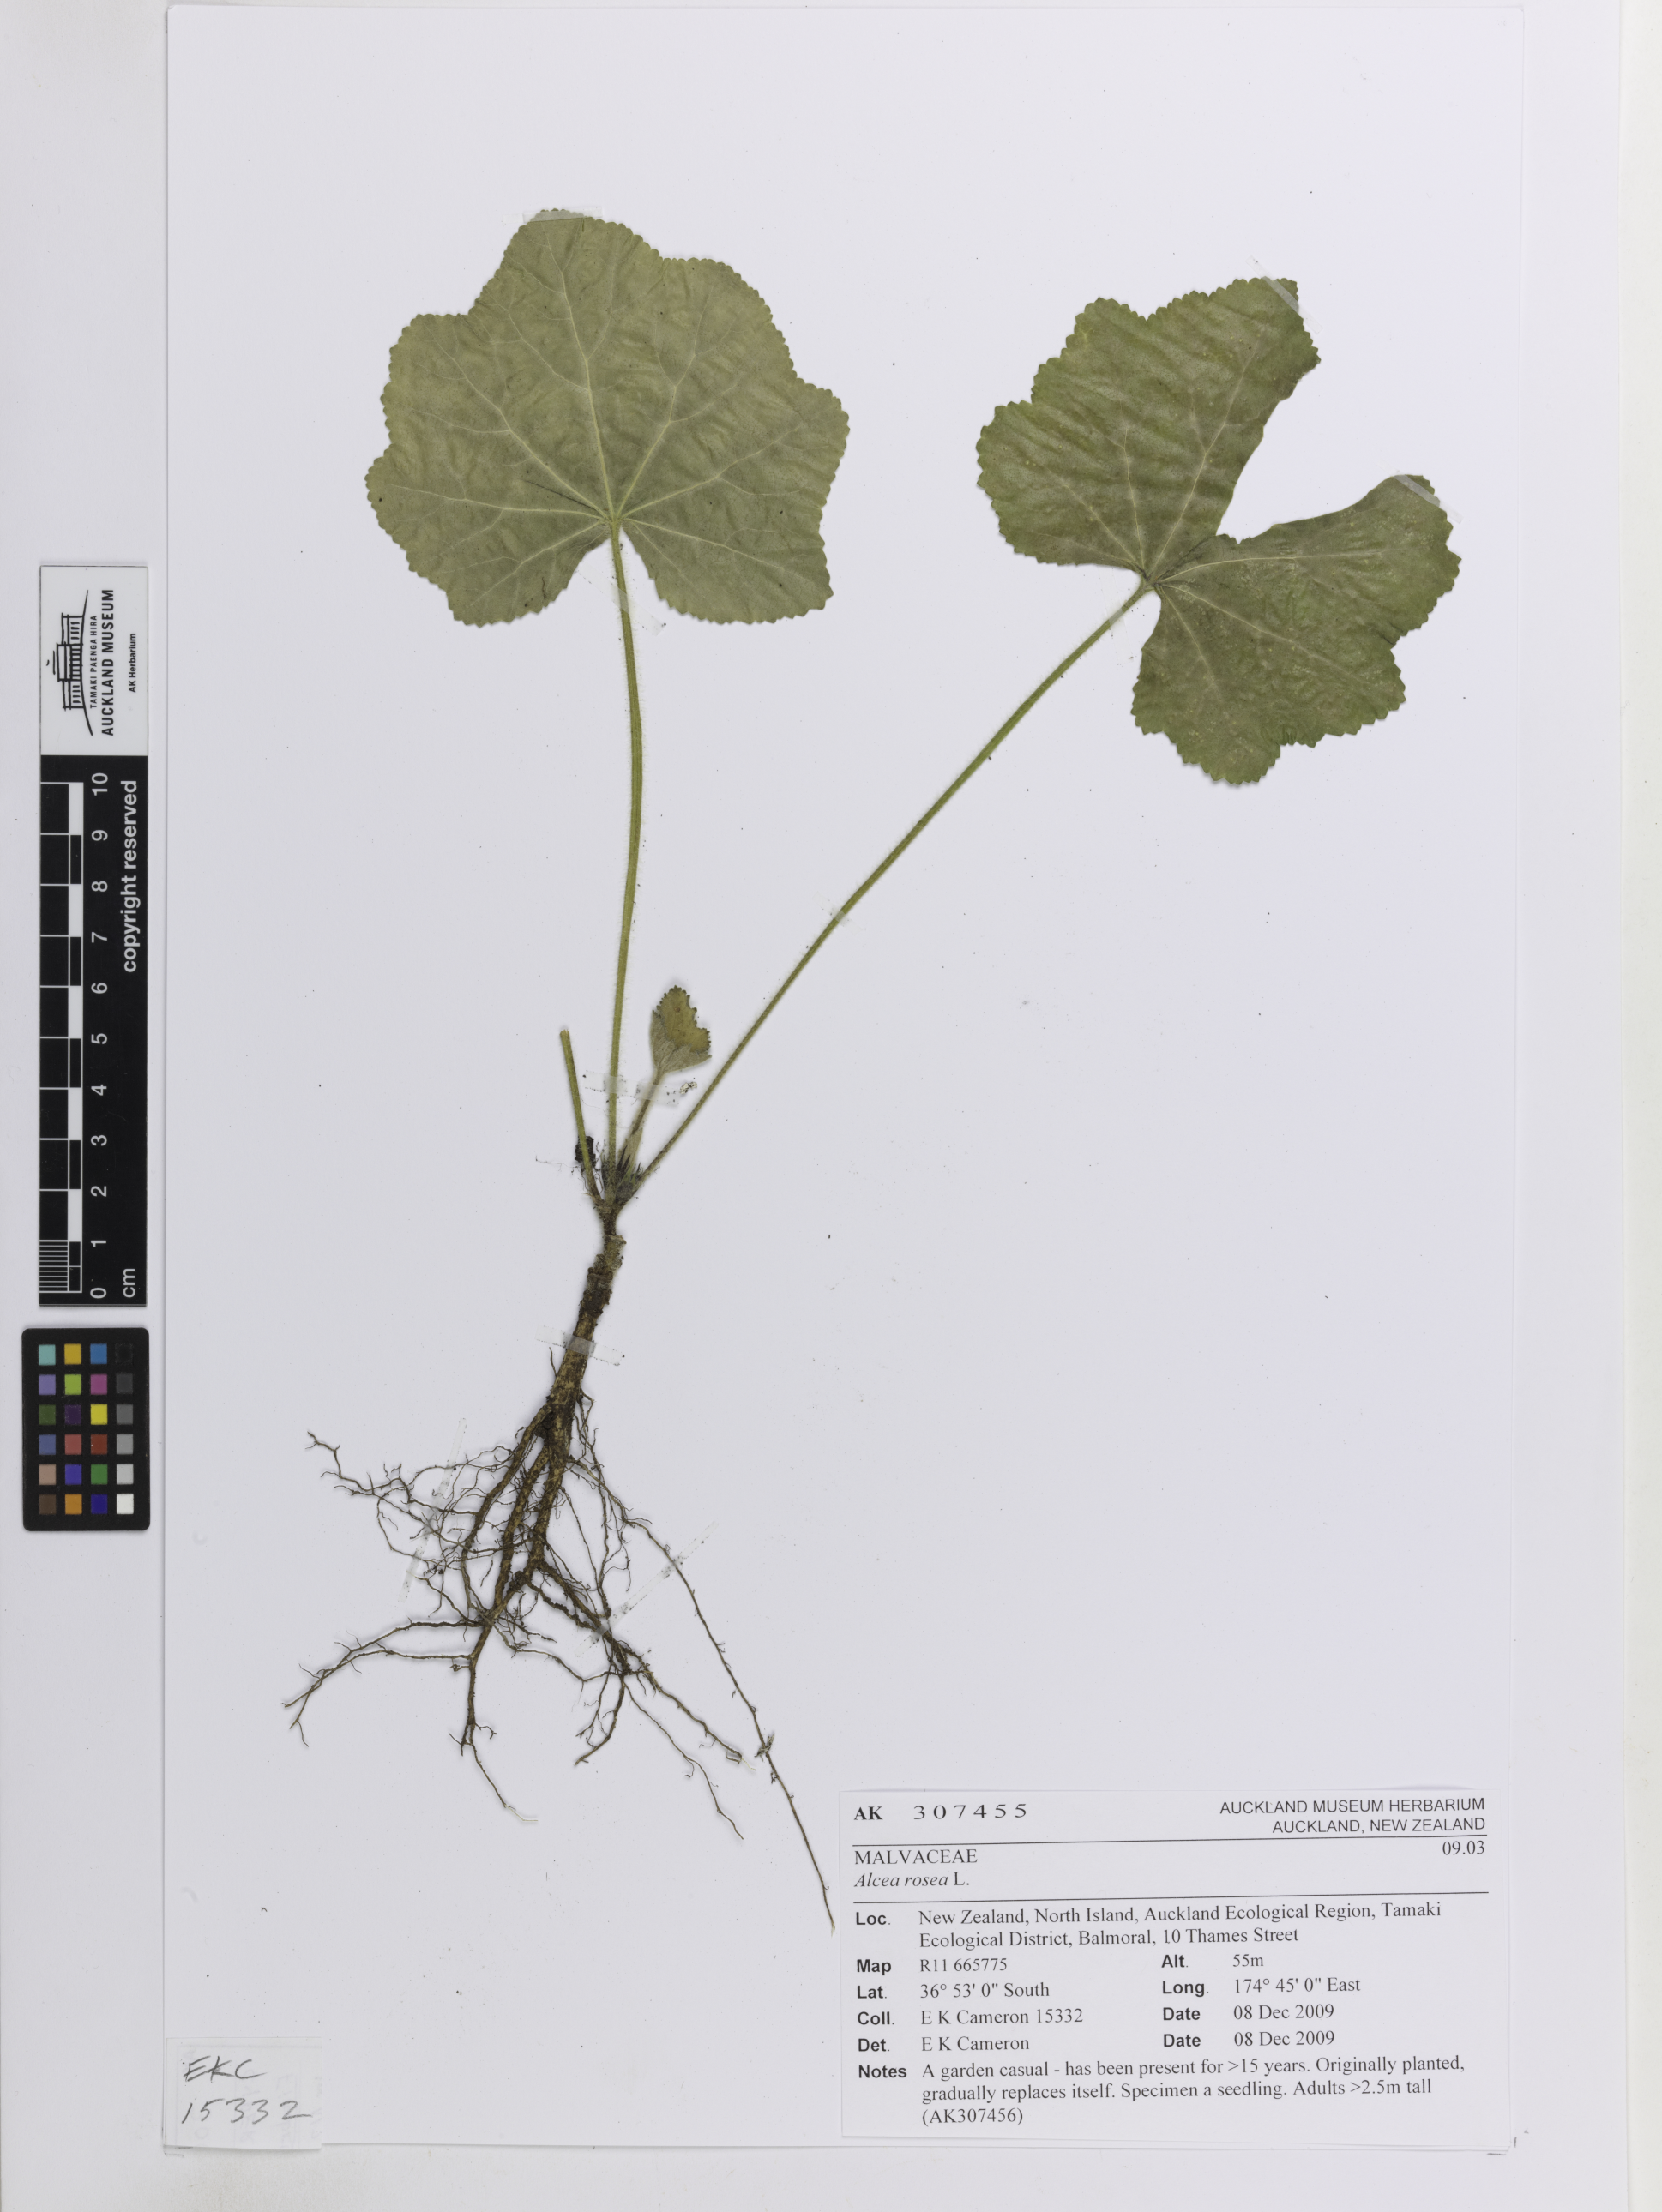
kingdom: Plantae
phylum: Tracheophyta
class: Magnoliopsida
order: Malvales
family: Malvaceae
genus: Alcea
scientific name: Alcea rosea
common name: Hollyhock
